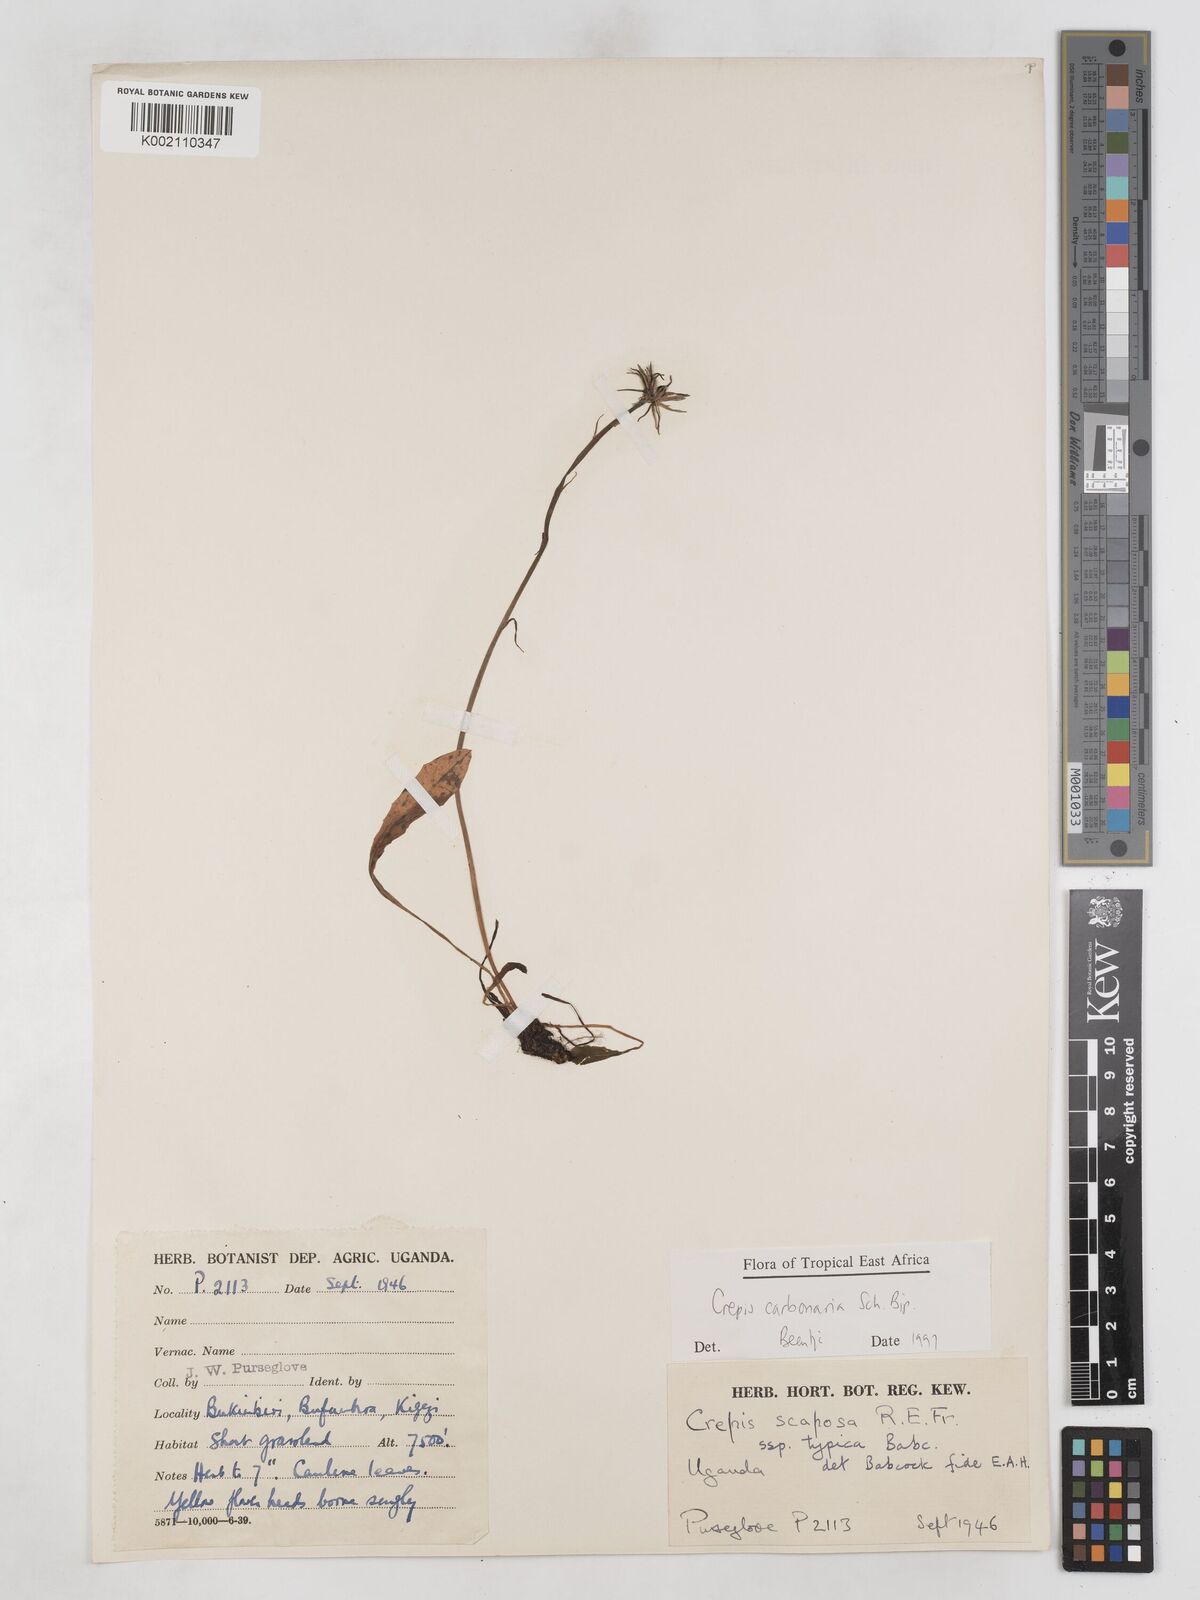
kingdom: Plantae
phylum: Tracheophyta
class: Magnoliopsida
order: Asterales
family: Asteraceae
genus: Crepis
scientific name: Crepis carbonaria
